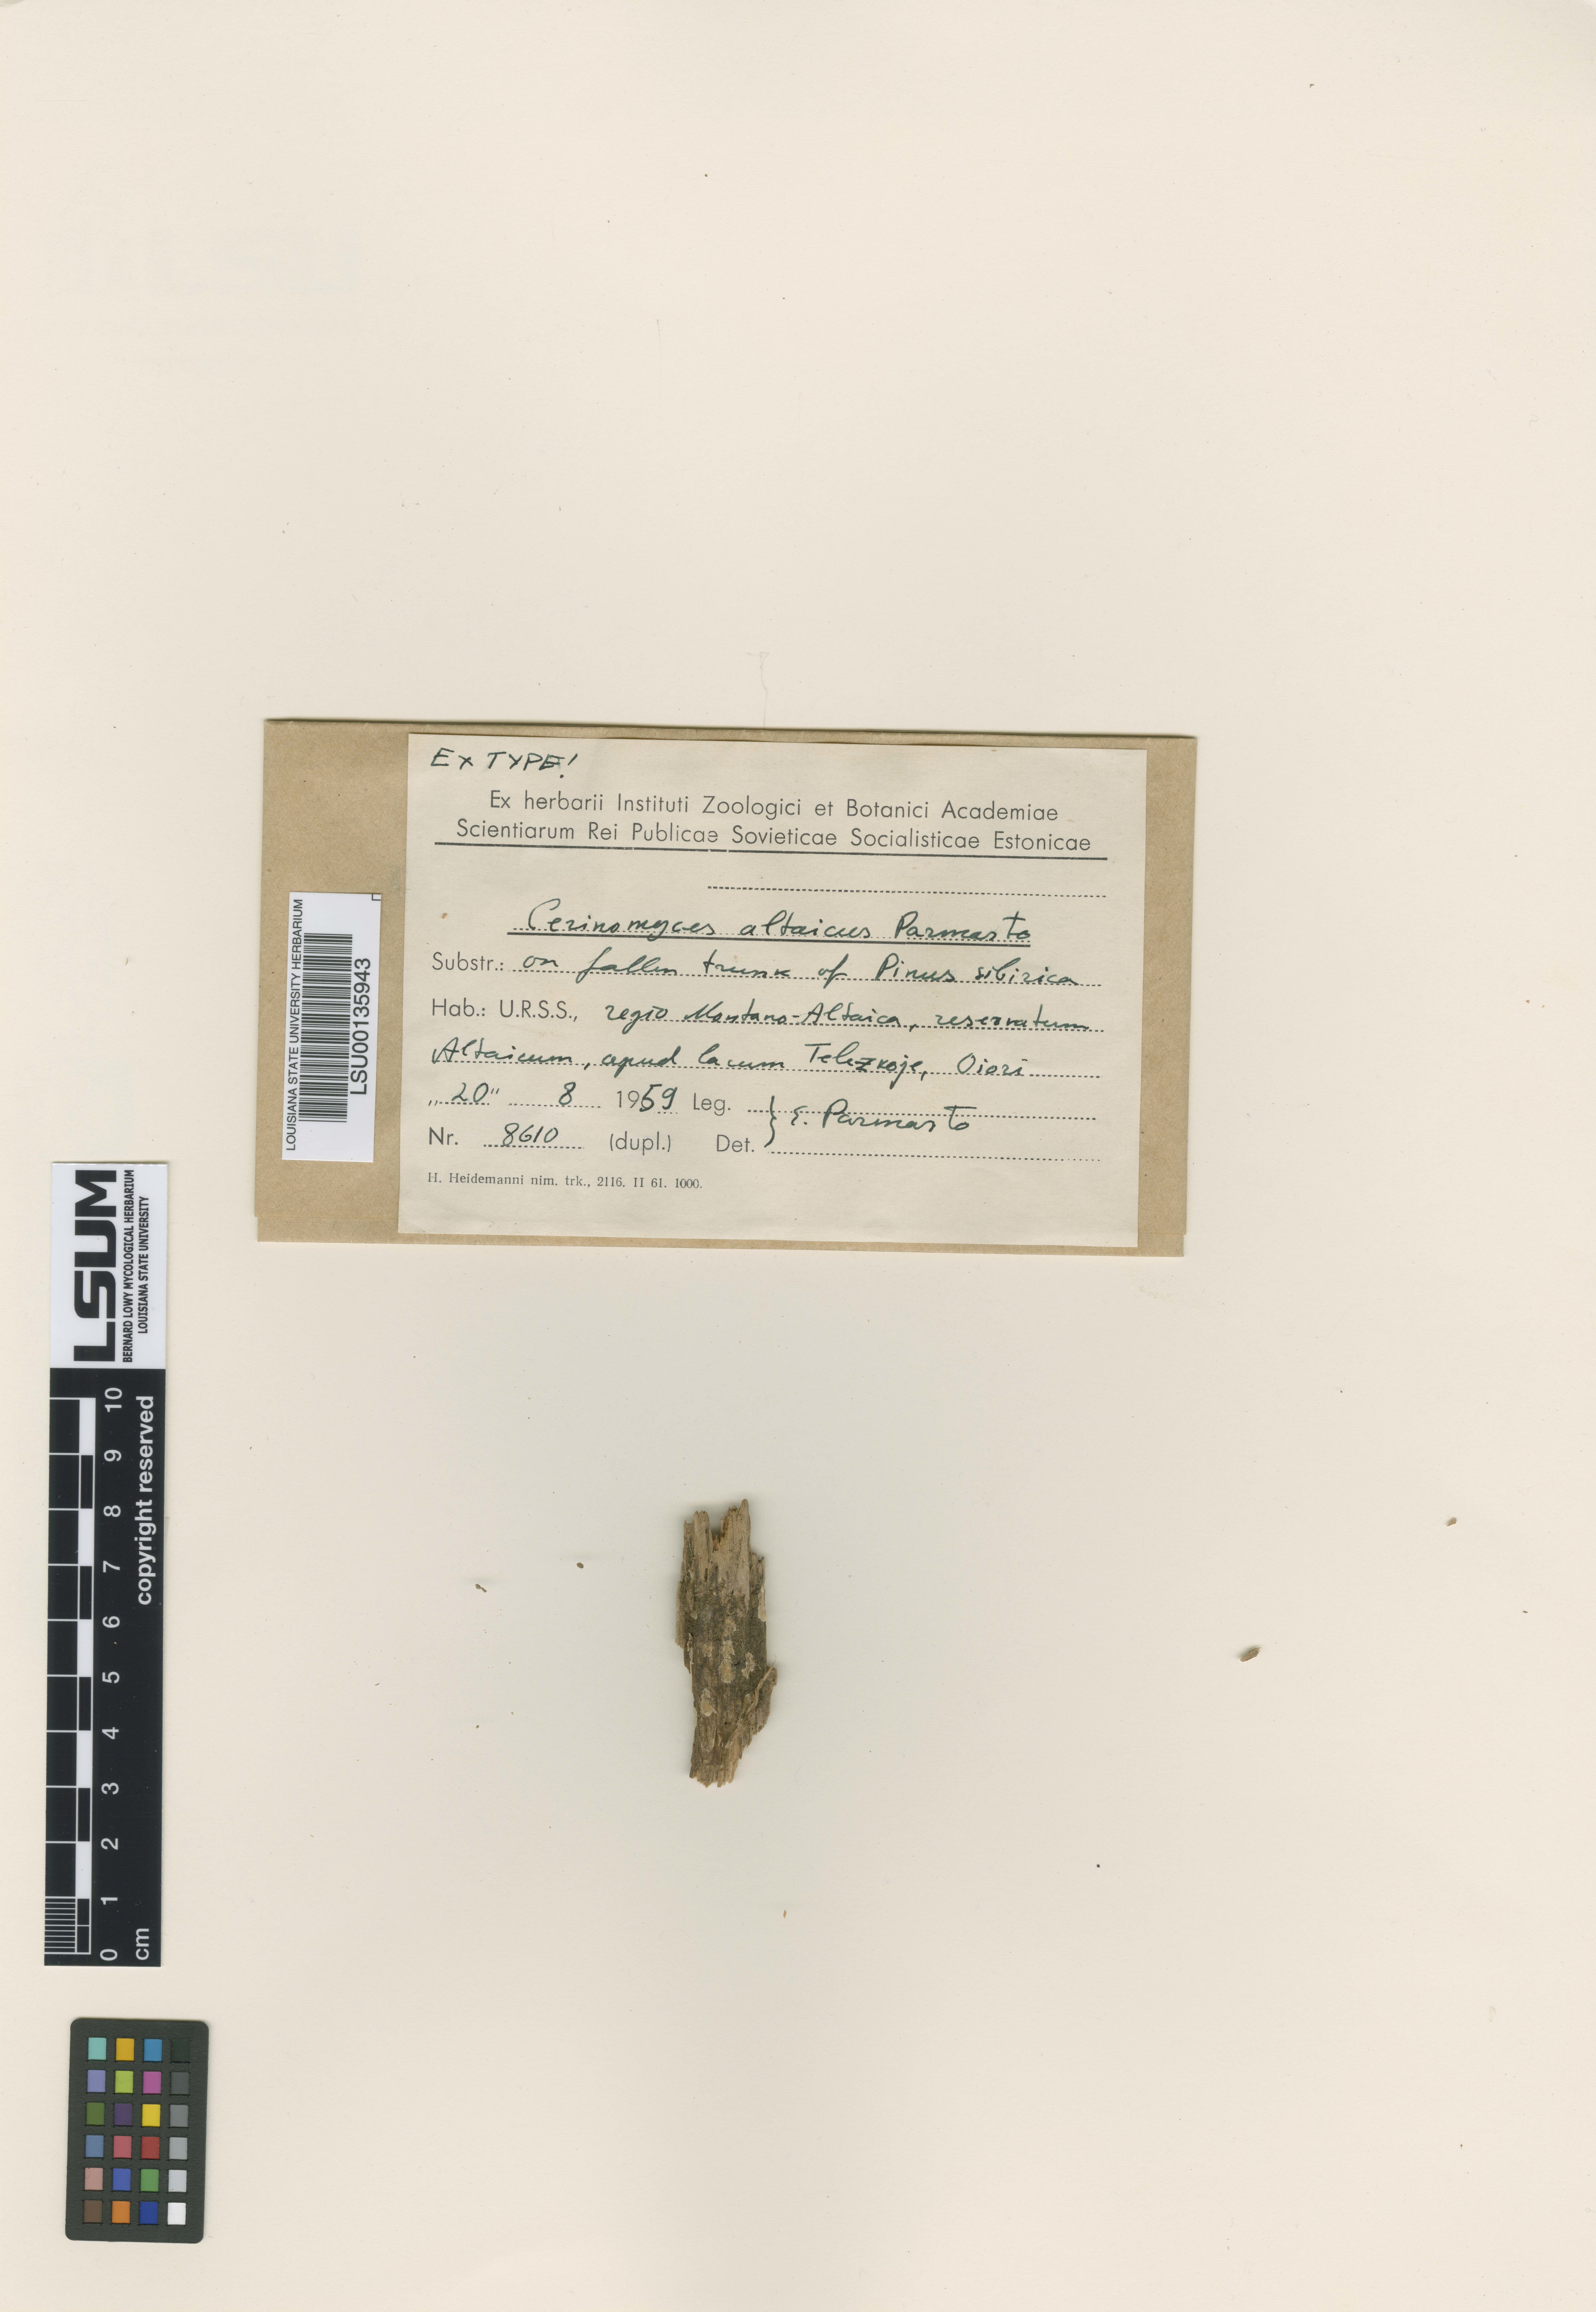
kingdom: Fungi
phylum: Basidiomycota
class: Dacrymycetes
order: Dacrymycetales
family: Cerinomycetaceae
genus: Cerinomyces
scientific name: Cerinomyces altaicus
